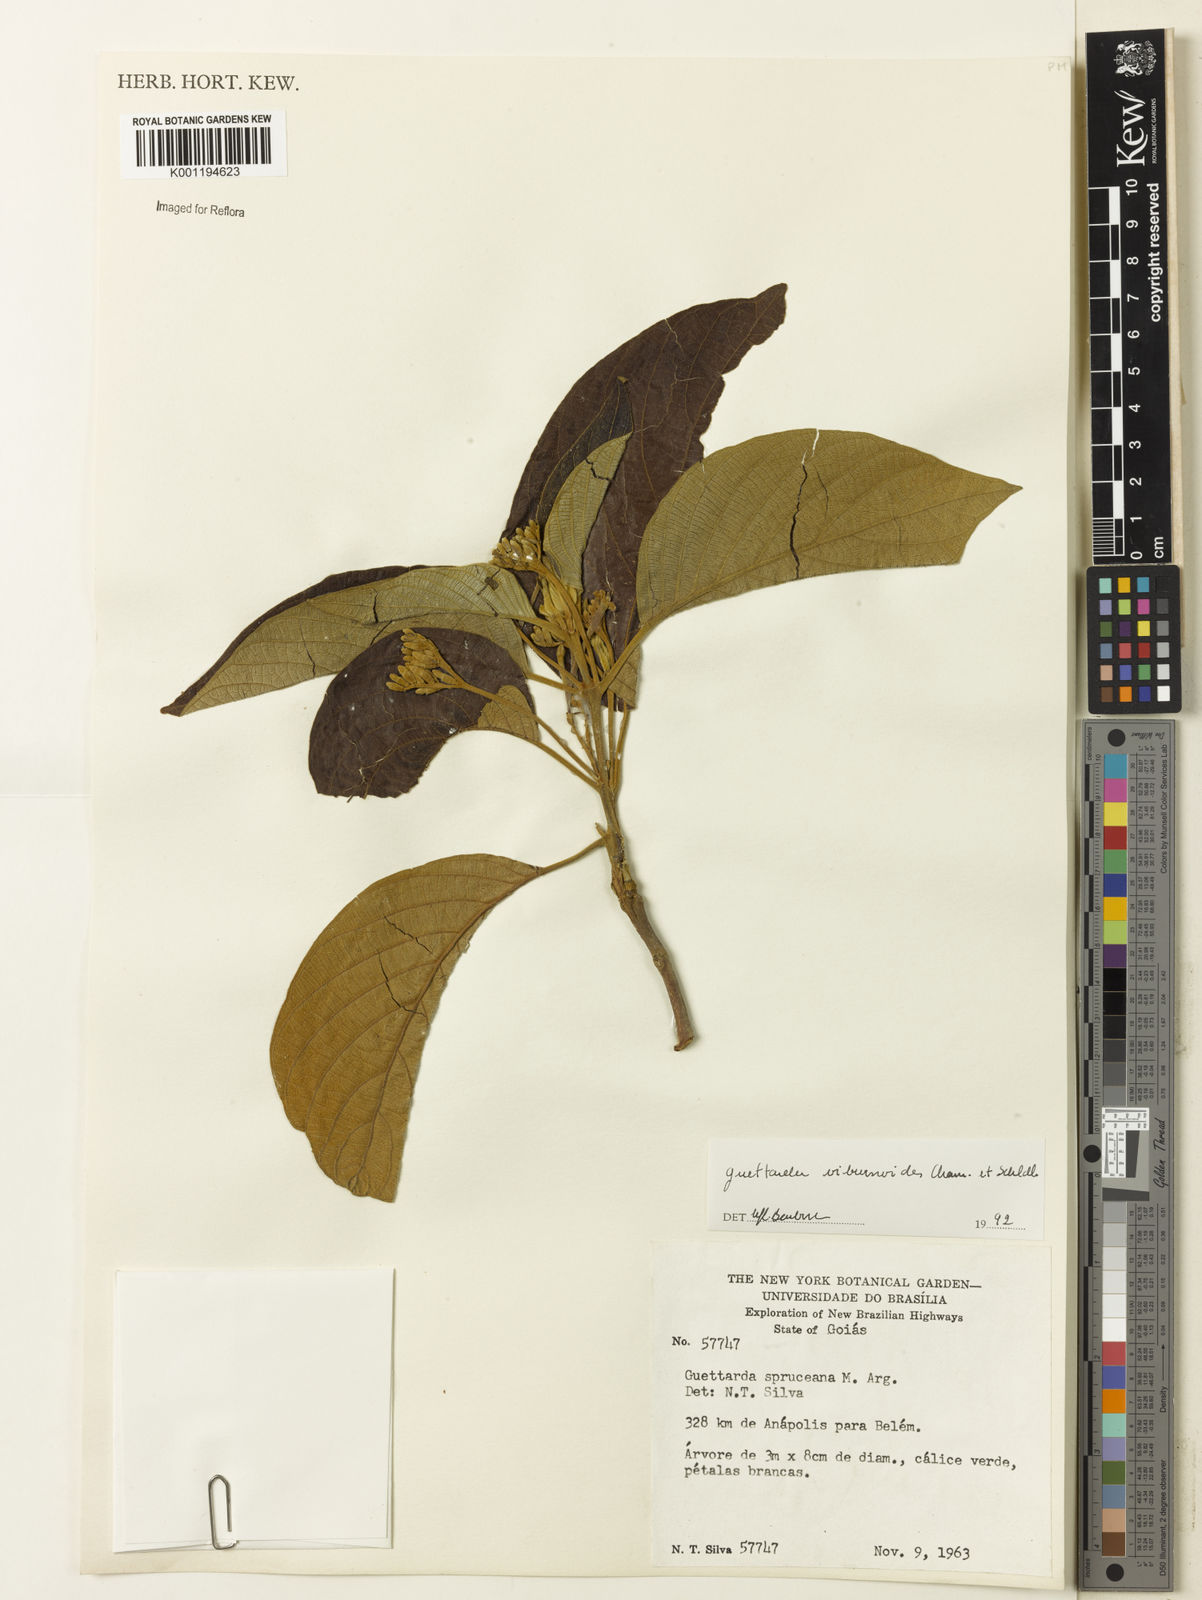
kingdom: Plantae
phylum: Tracheophyta
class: Magnoliopsida
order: Gentianales
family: Rubiaceae
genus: Guettarda
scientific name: Guettarda viburnoides
